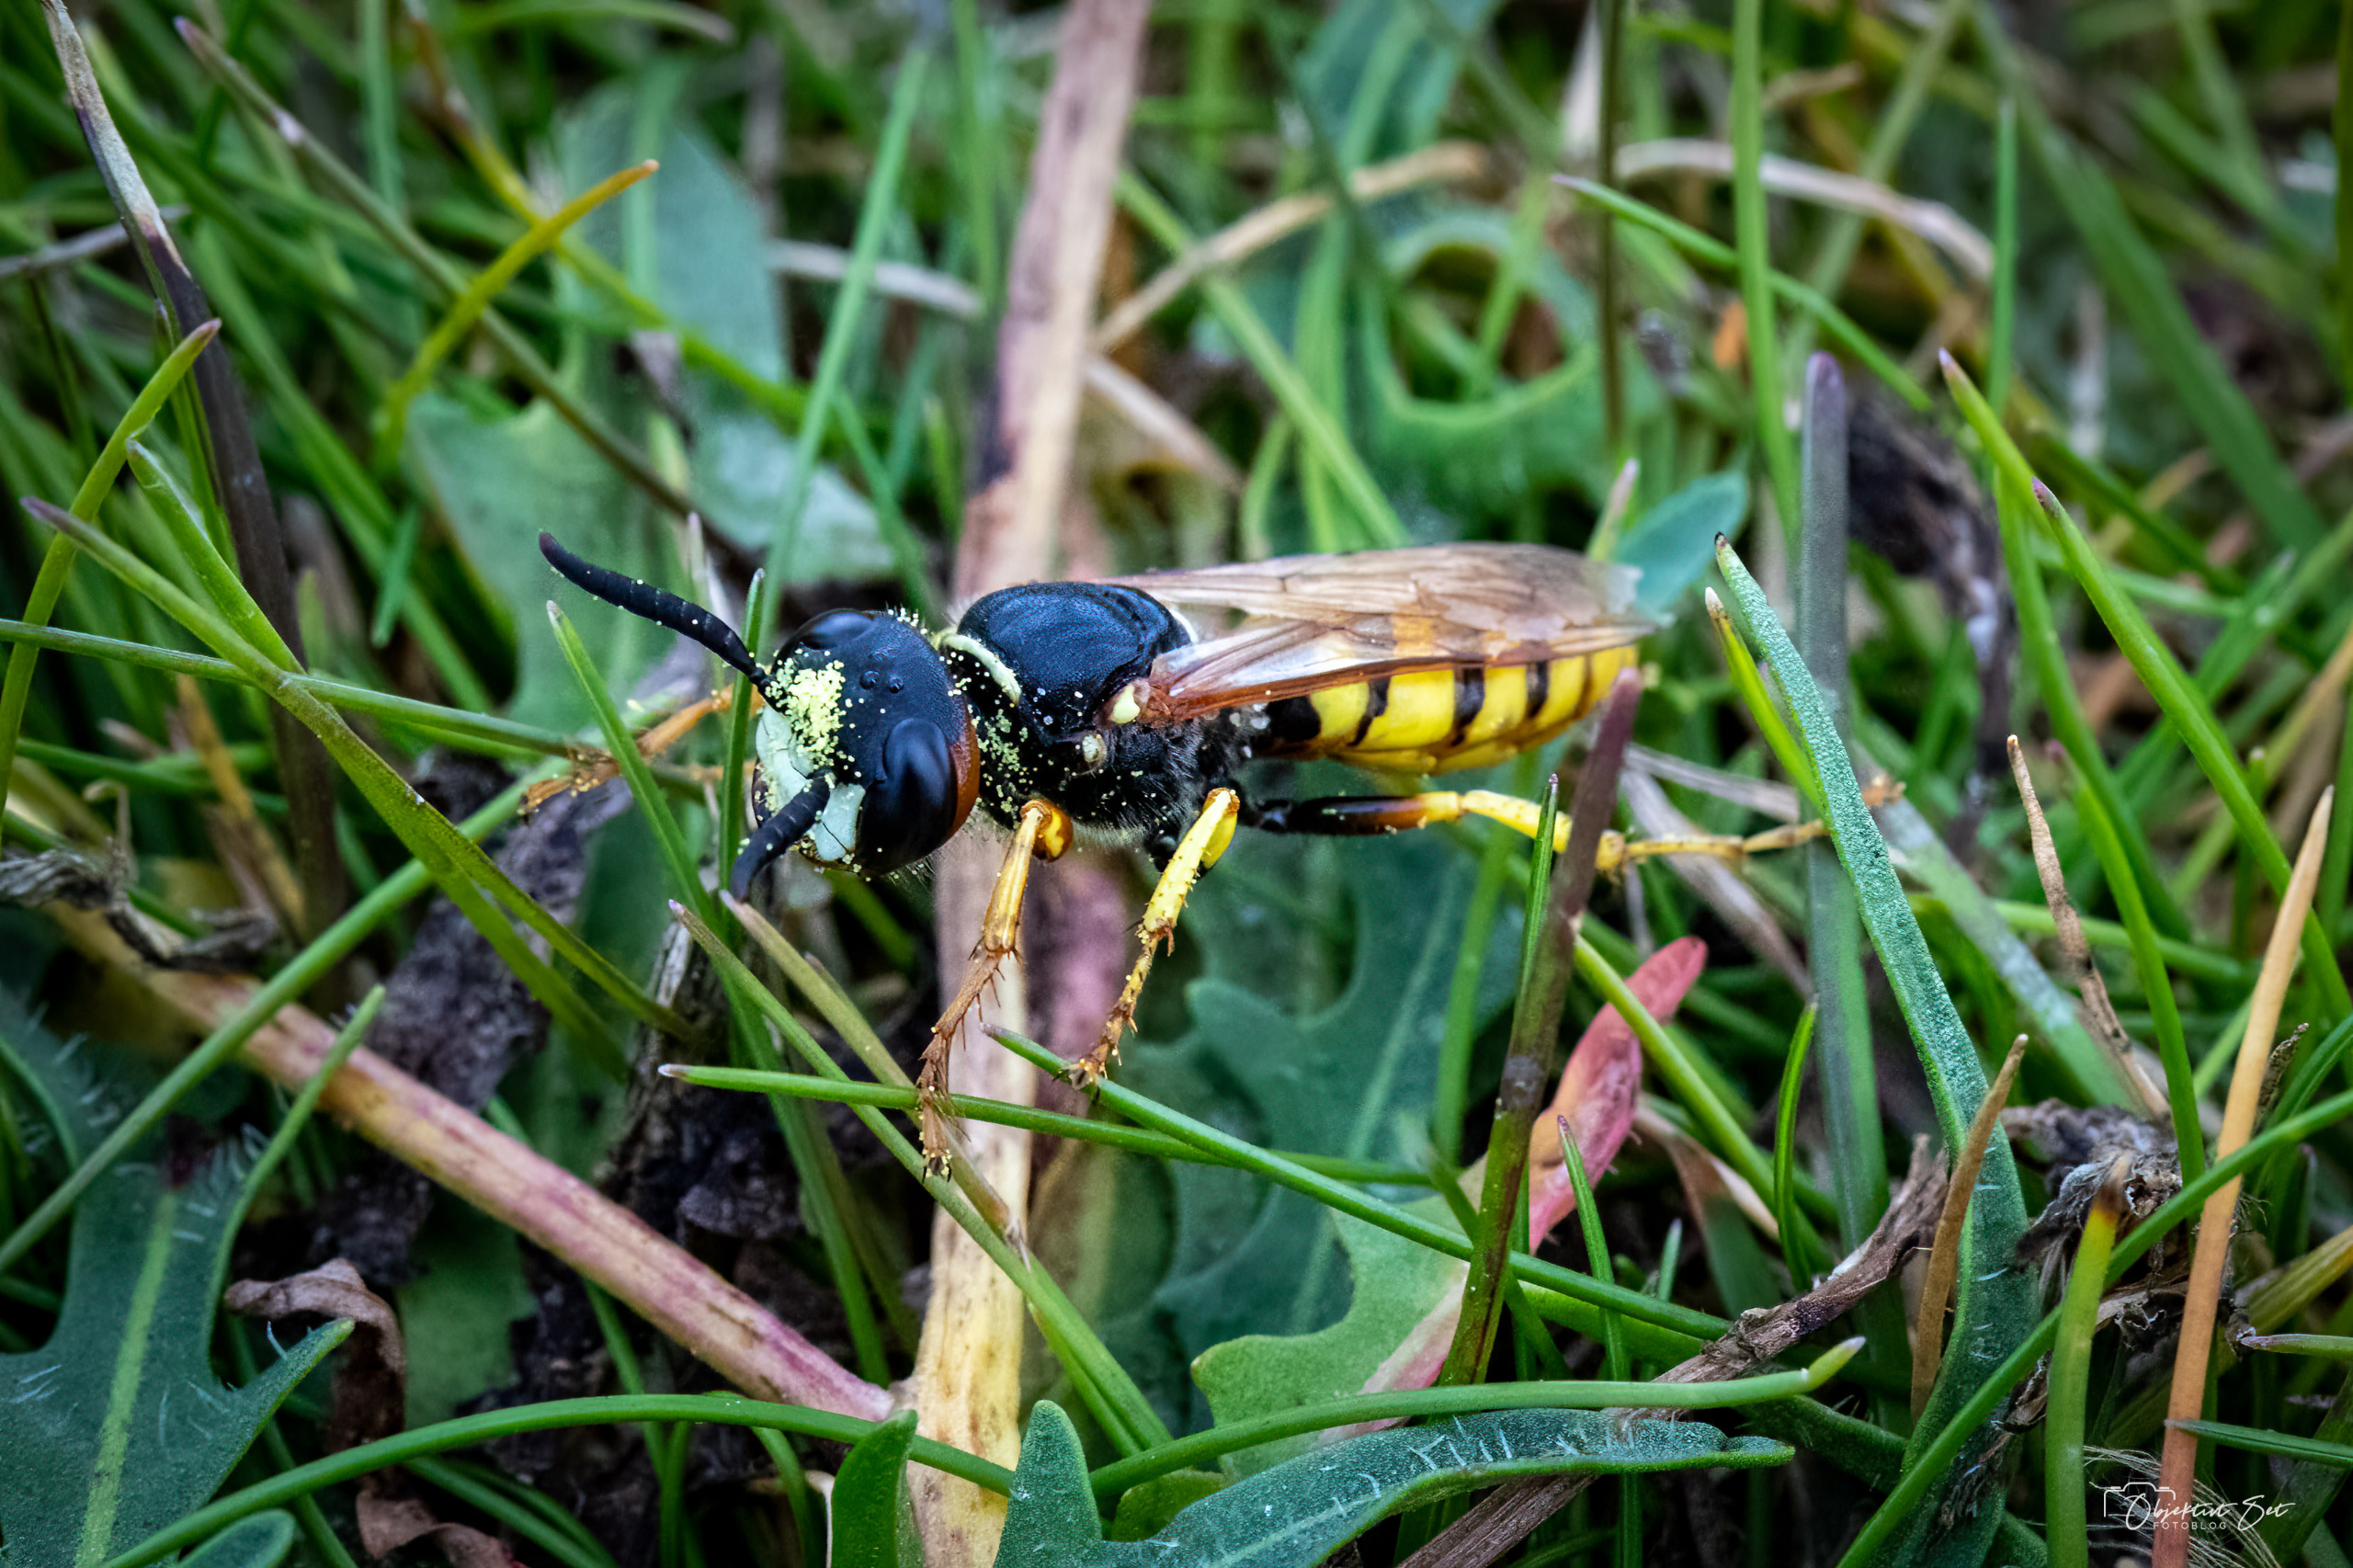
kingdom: Animalia
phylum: Arthropoda
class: Insecta
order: Hymenoptera
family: Crabronidae
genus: Philanthus
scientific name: Philanthus triangulum
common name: Biulv
